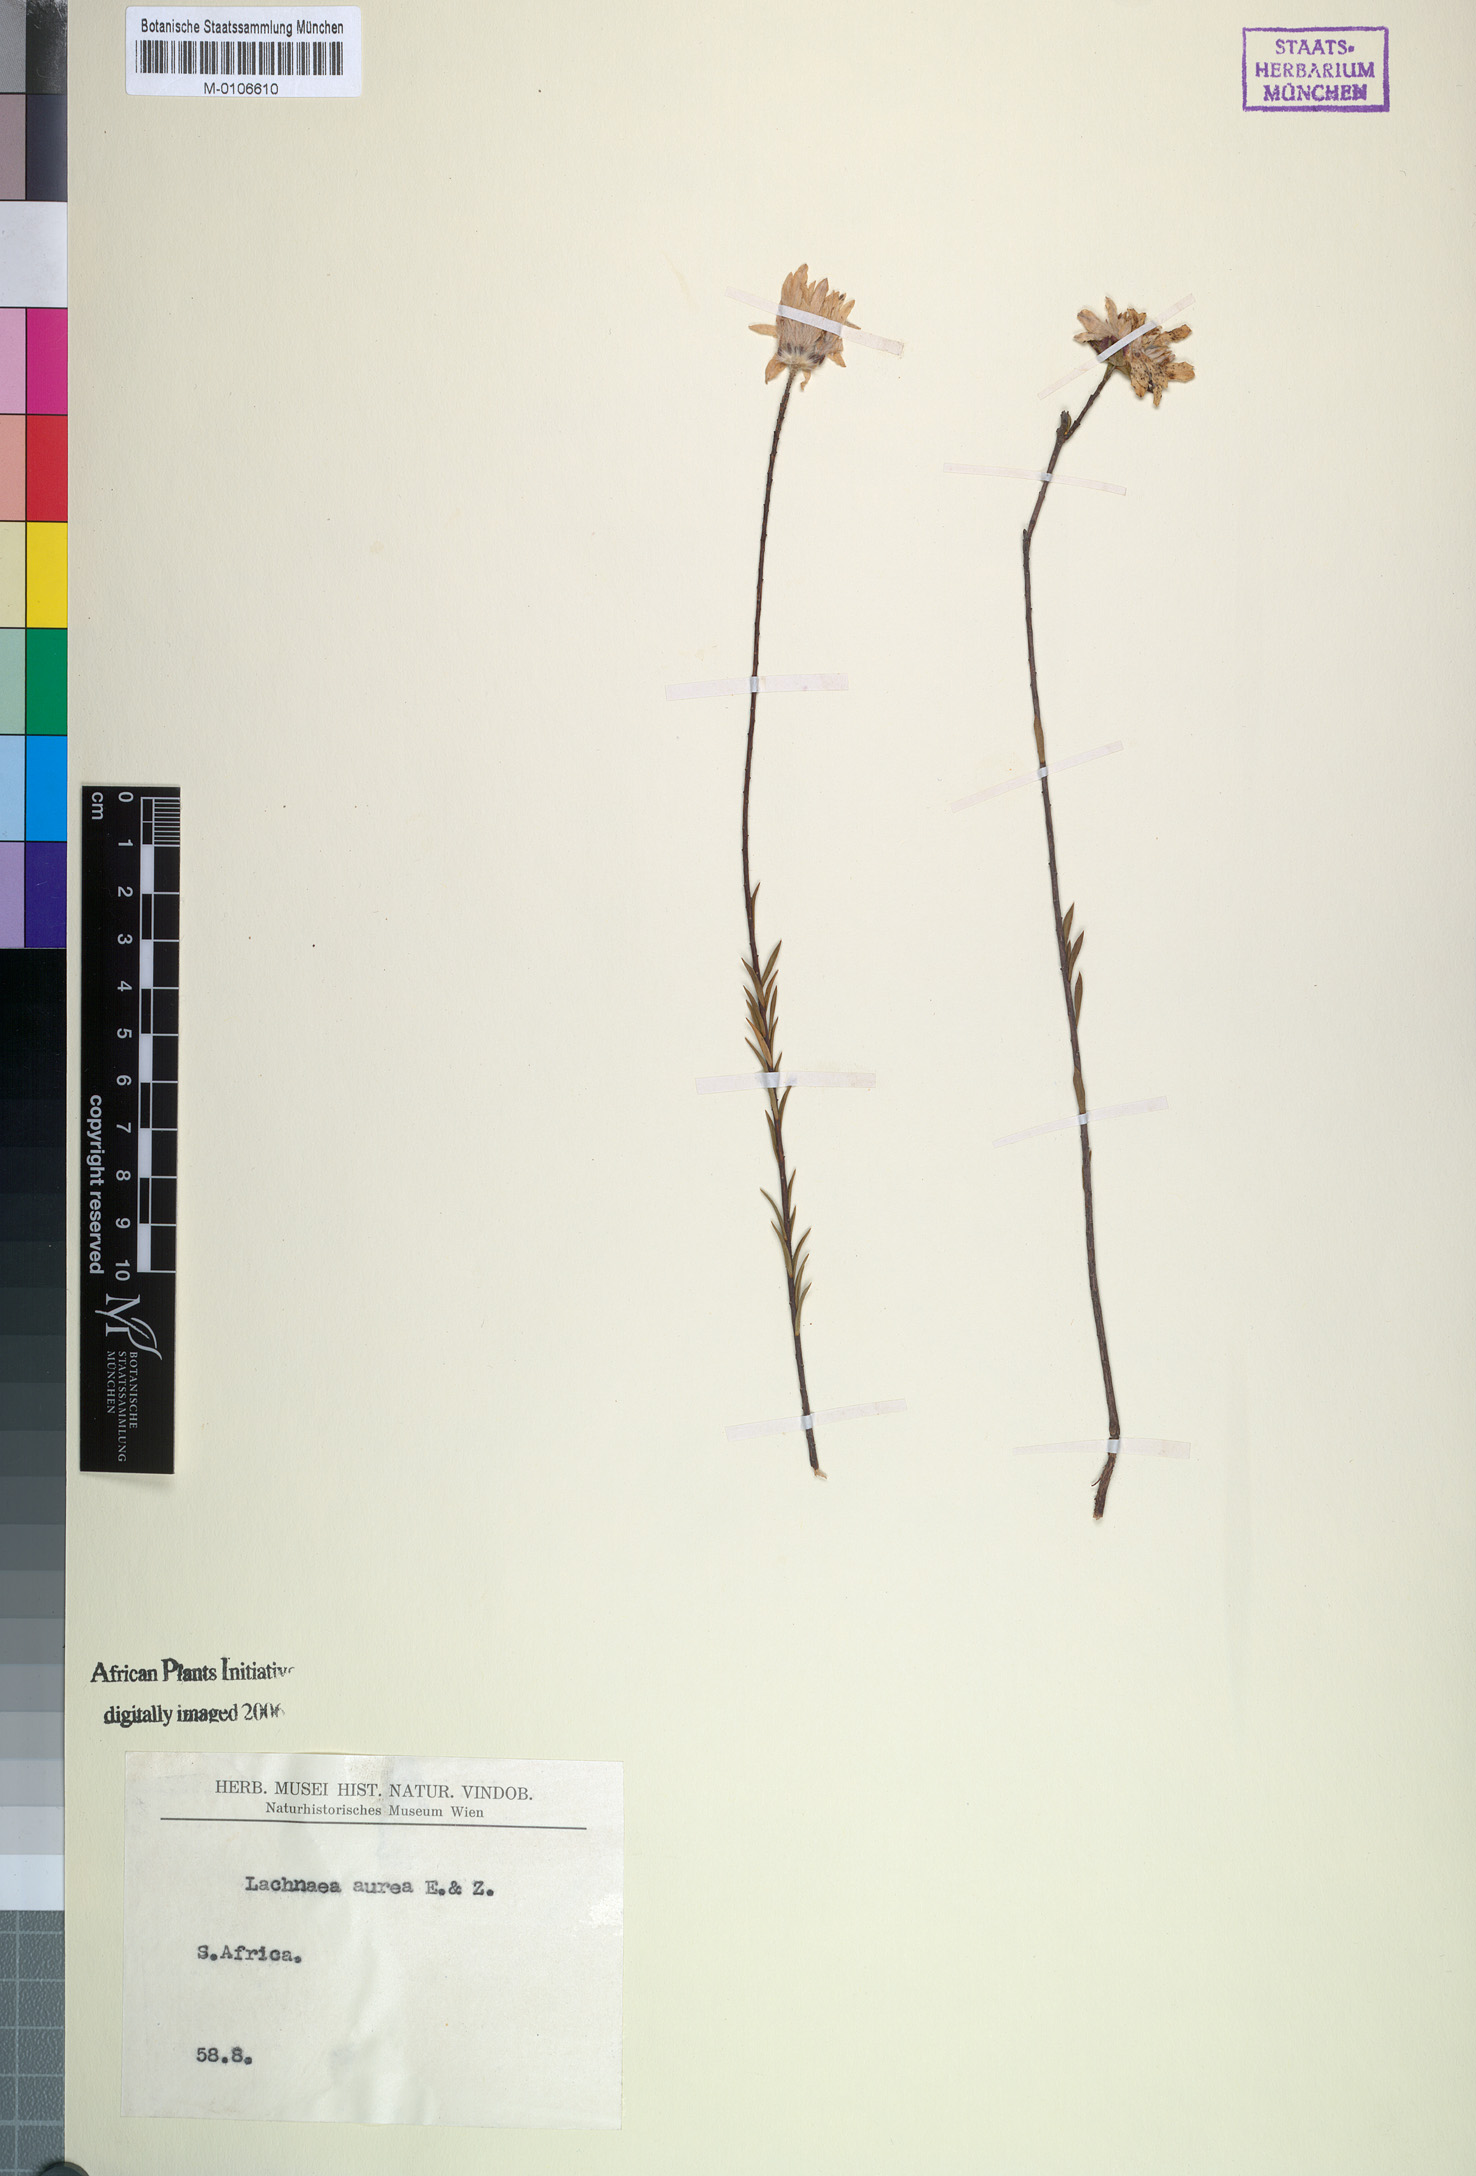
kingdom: Plantae
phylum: Tracheophyta
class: Magnoliopsida
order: Malvales
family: Thymelaeaceae
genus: Lachnaea
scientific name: Lachnaea aurea
